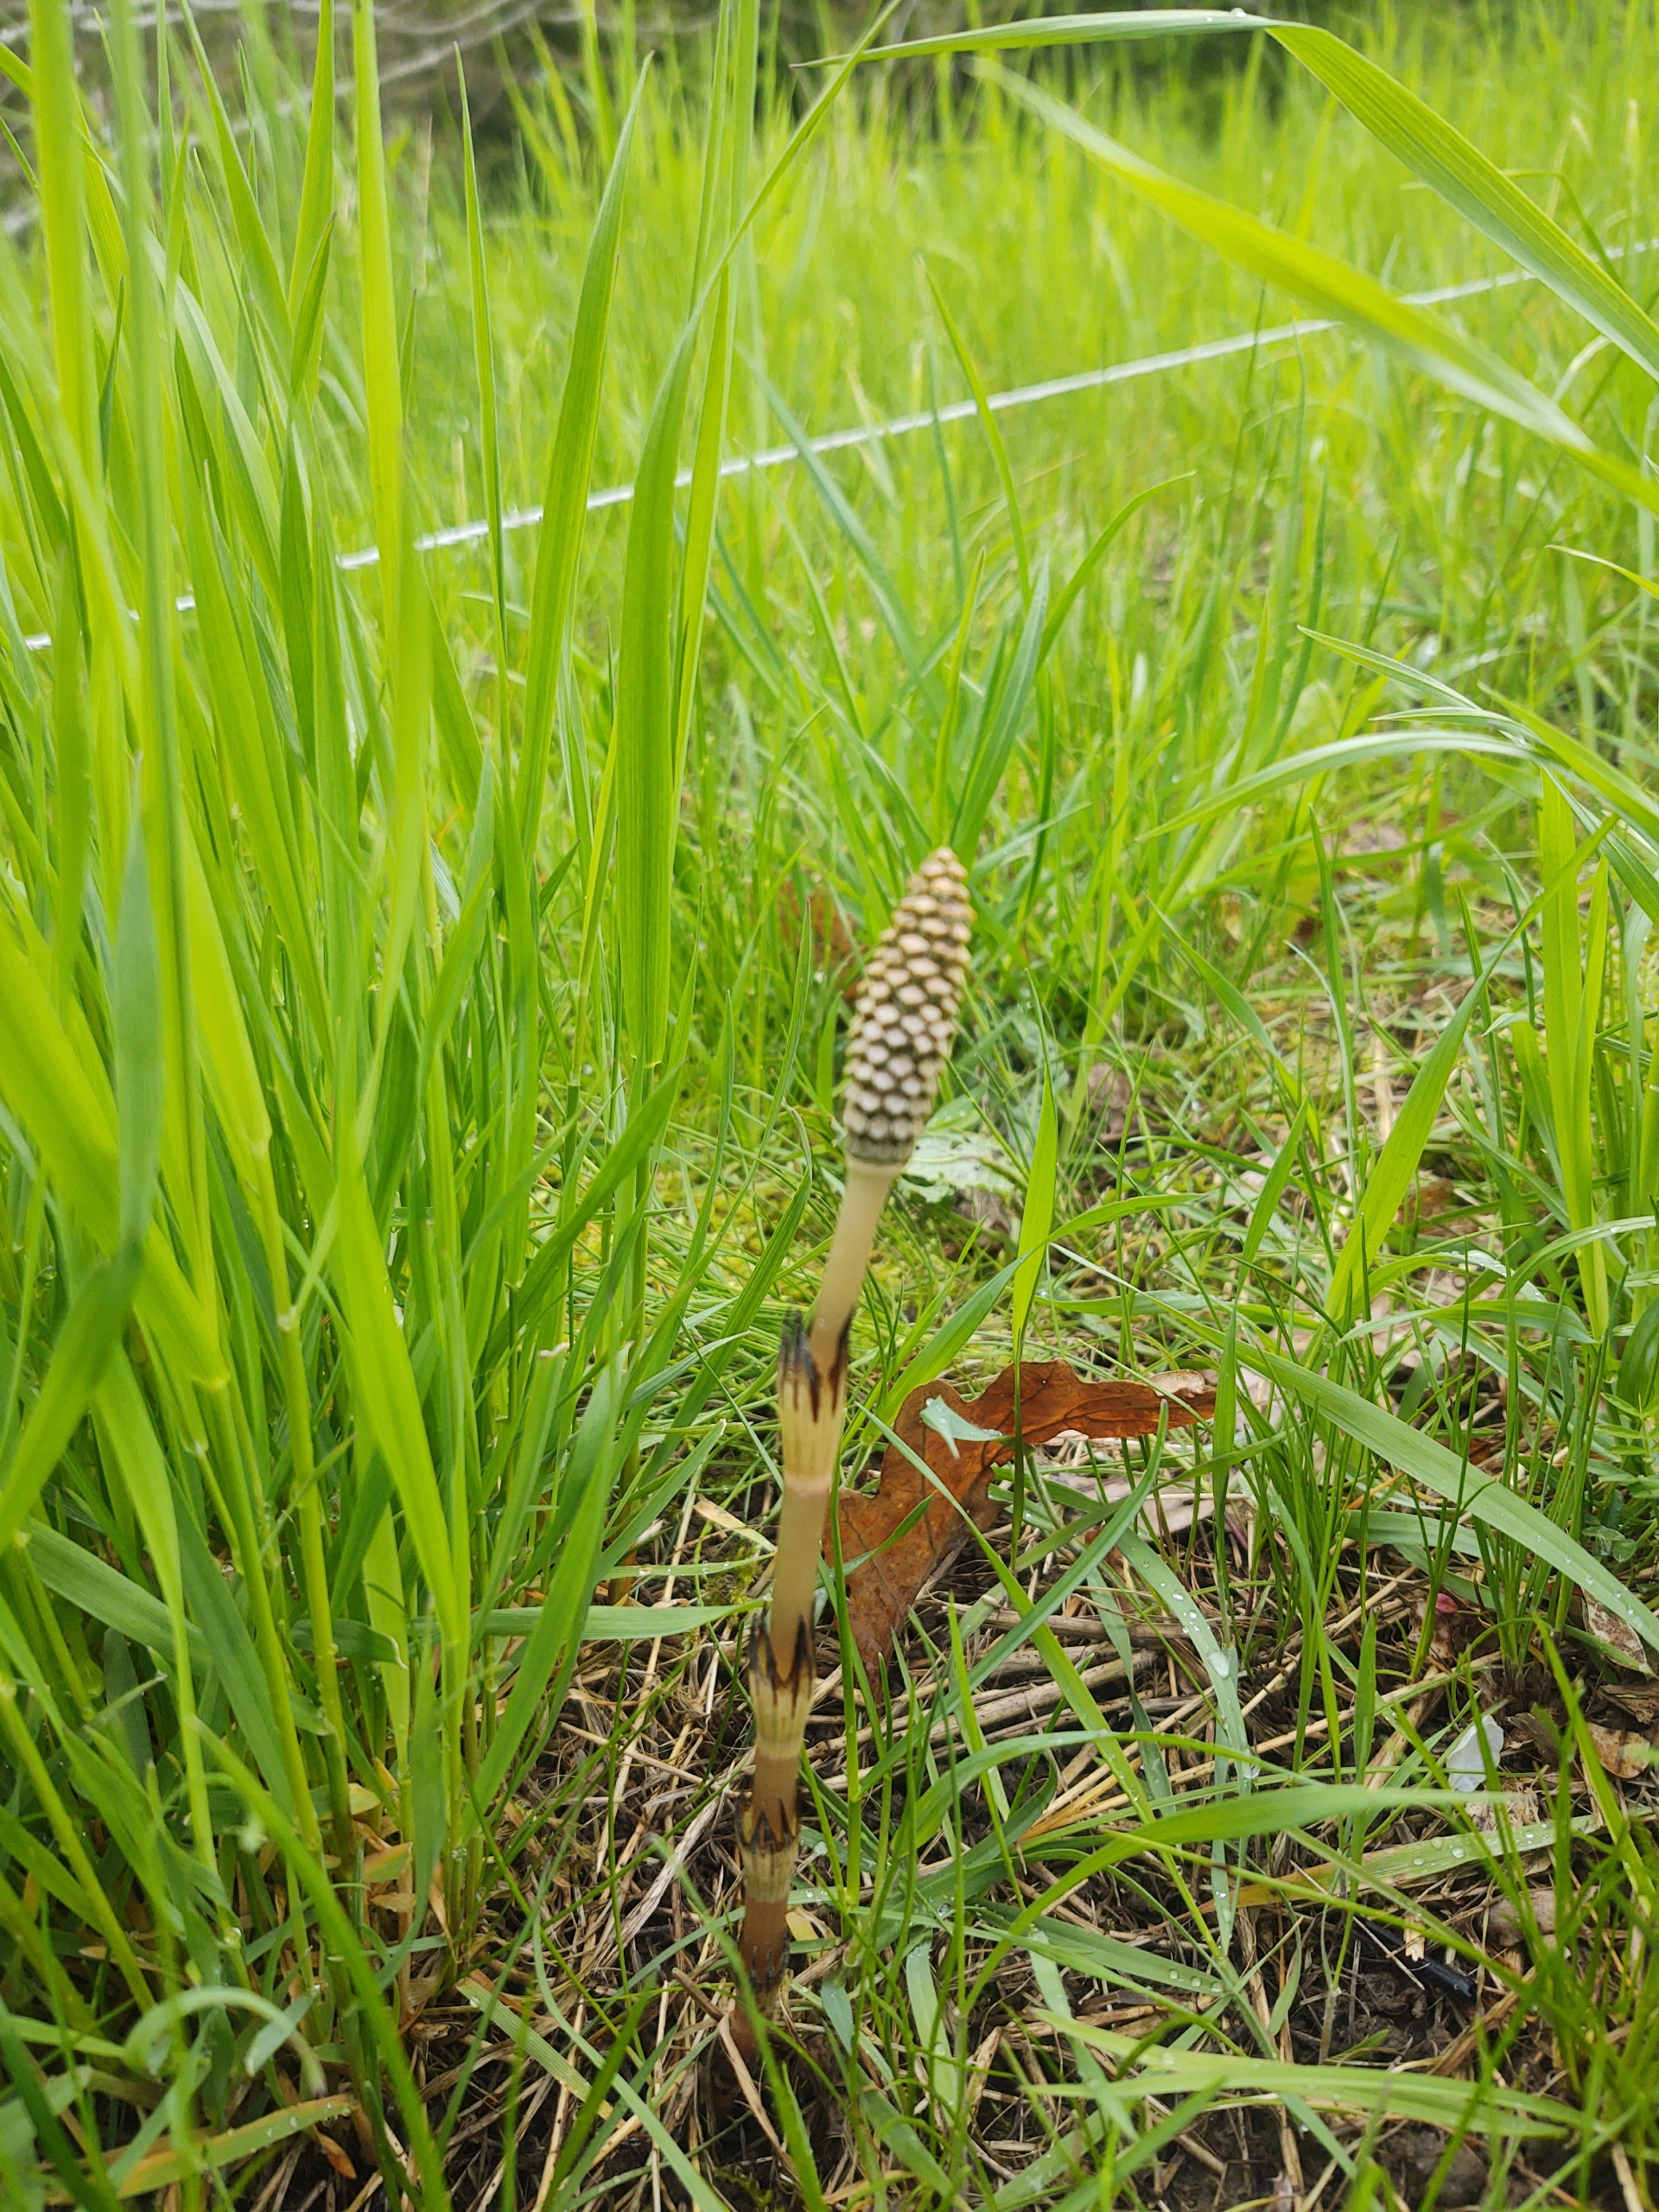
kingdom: Plantae
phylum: Tracheophyta
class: Polypodiopsida
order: Equisetales
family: Equisetaceae
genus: Equisetum
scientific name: Equisetum arvense
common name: Ager-padderok
